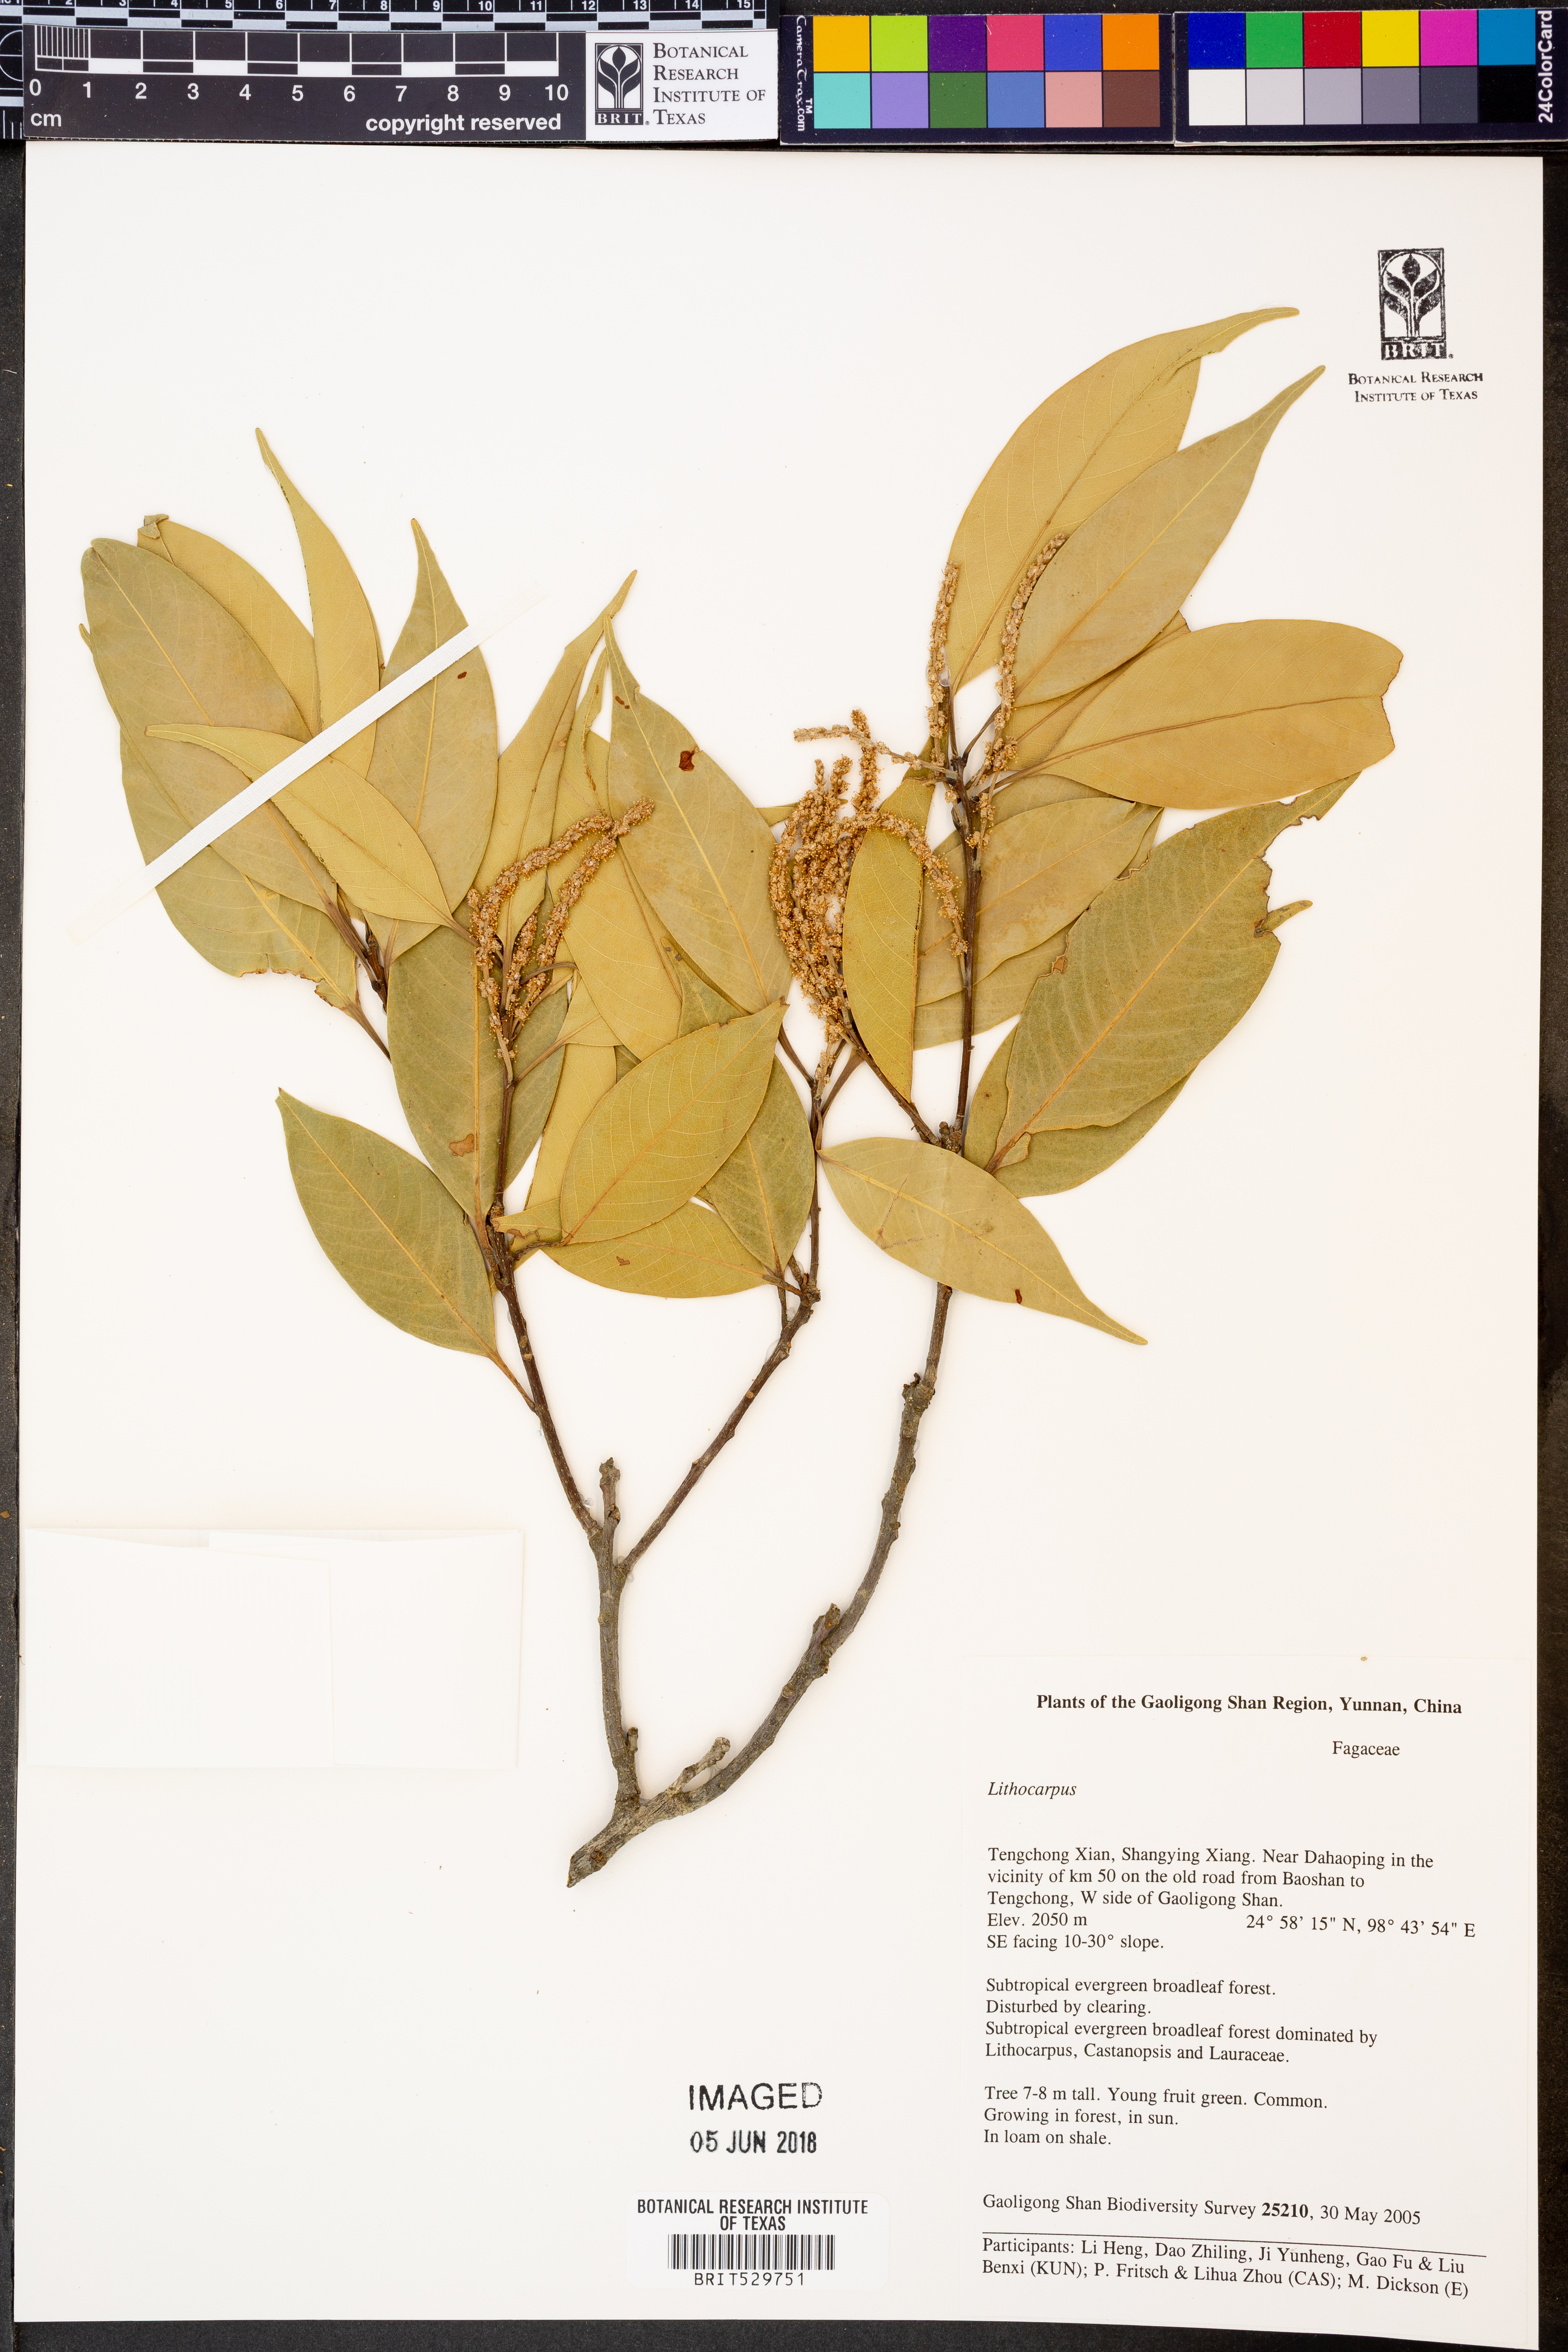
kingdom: Plantae
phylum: Tracheophyta
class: Magnoliopsida
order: Fagales
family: Fagaceae
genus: Lithocarpus
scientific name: Lithocarpus
